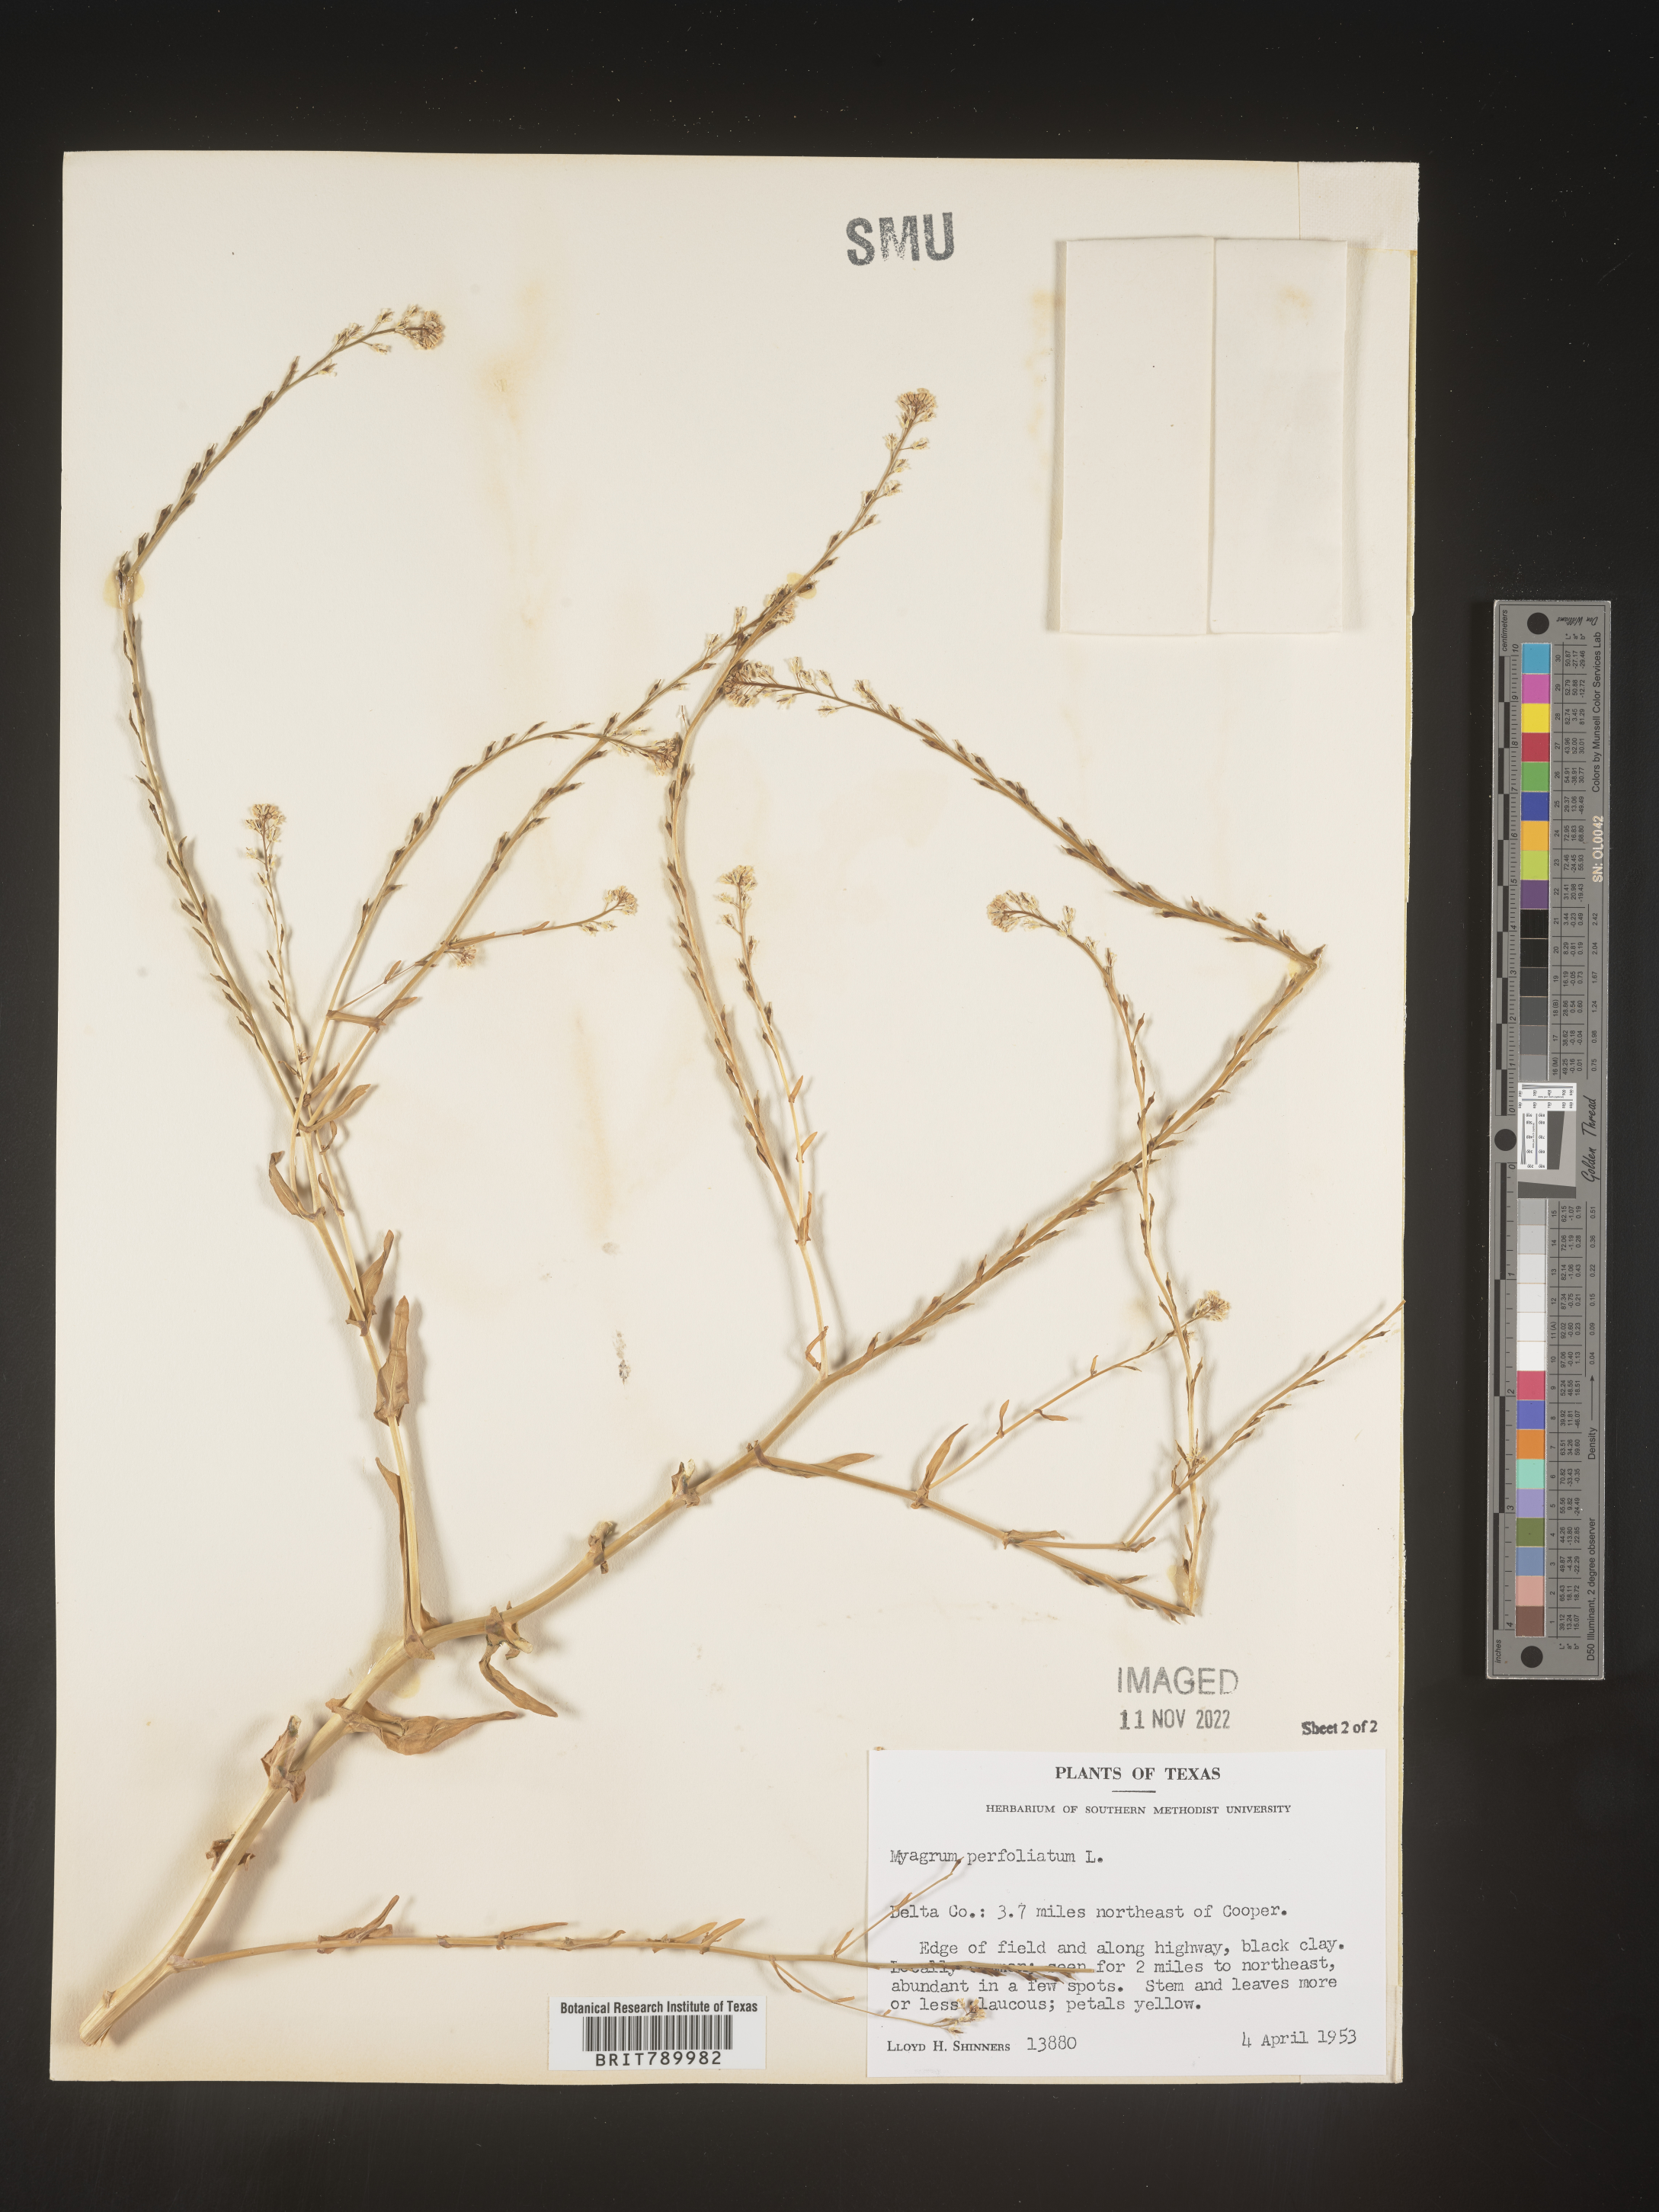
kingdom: Plantae
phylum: Tracheophyta
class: Magnoliopsida
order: Brassicales
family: Brassicaceae
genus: Myagrum
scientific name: Myagrum perfoliatum
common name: Mitre cress
